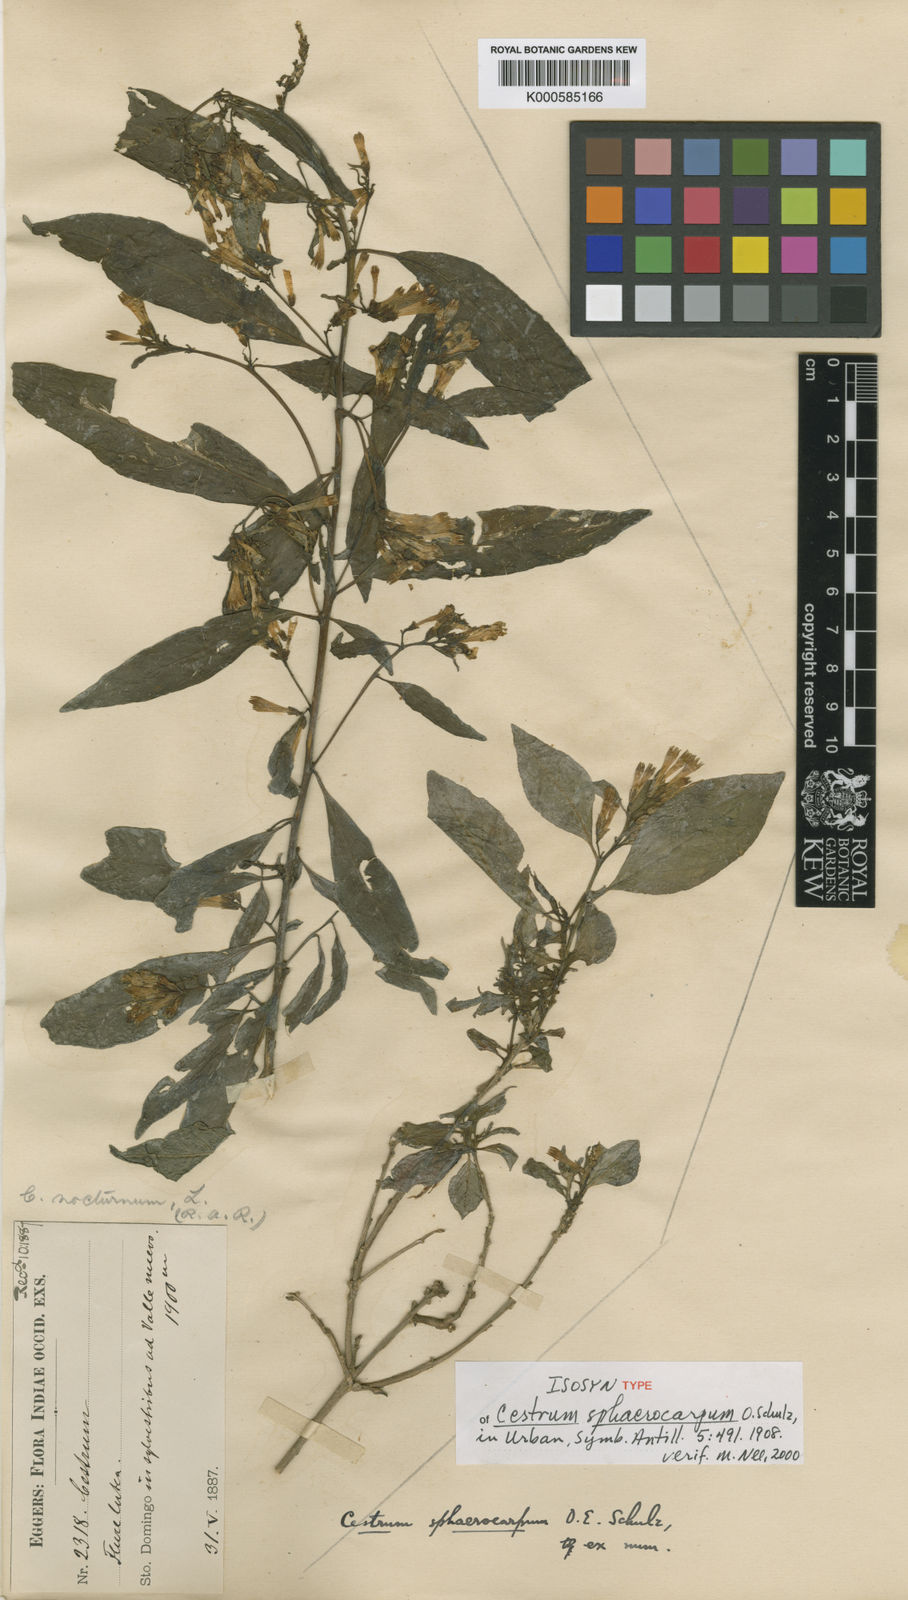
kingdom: Plantae
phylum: Tracheophyta
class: Magnoliopsida
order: Solanales
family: Solanaceae
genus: Cestrum
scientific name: Cestrum sphaerocarpum
